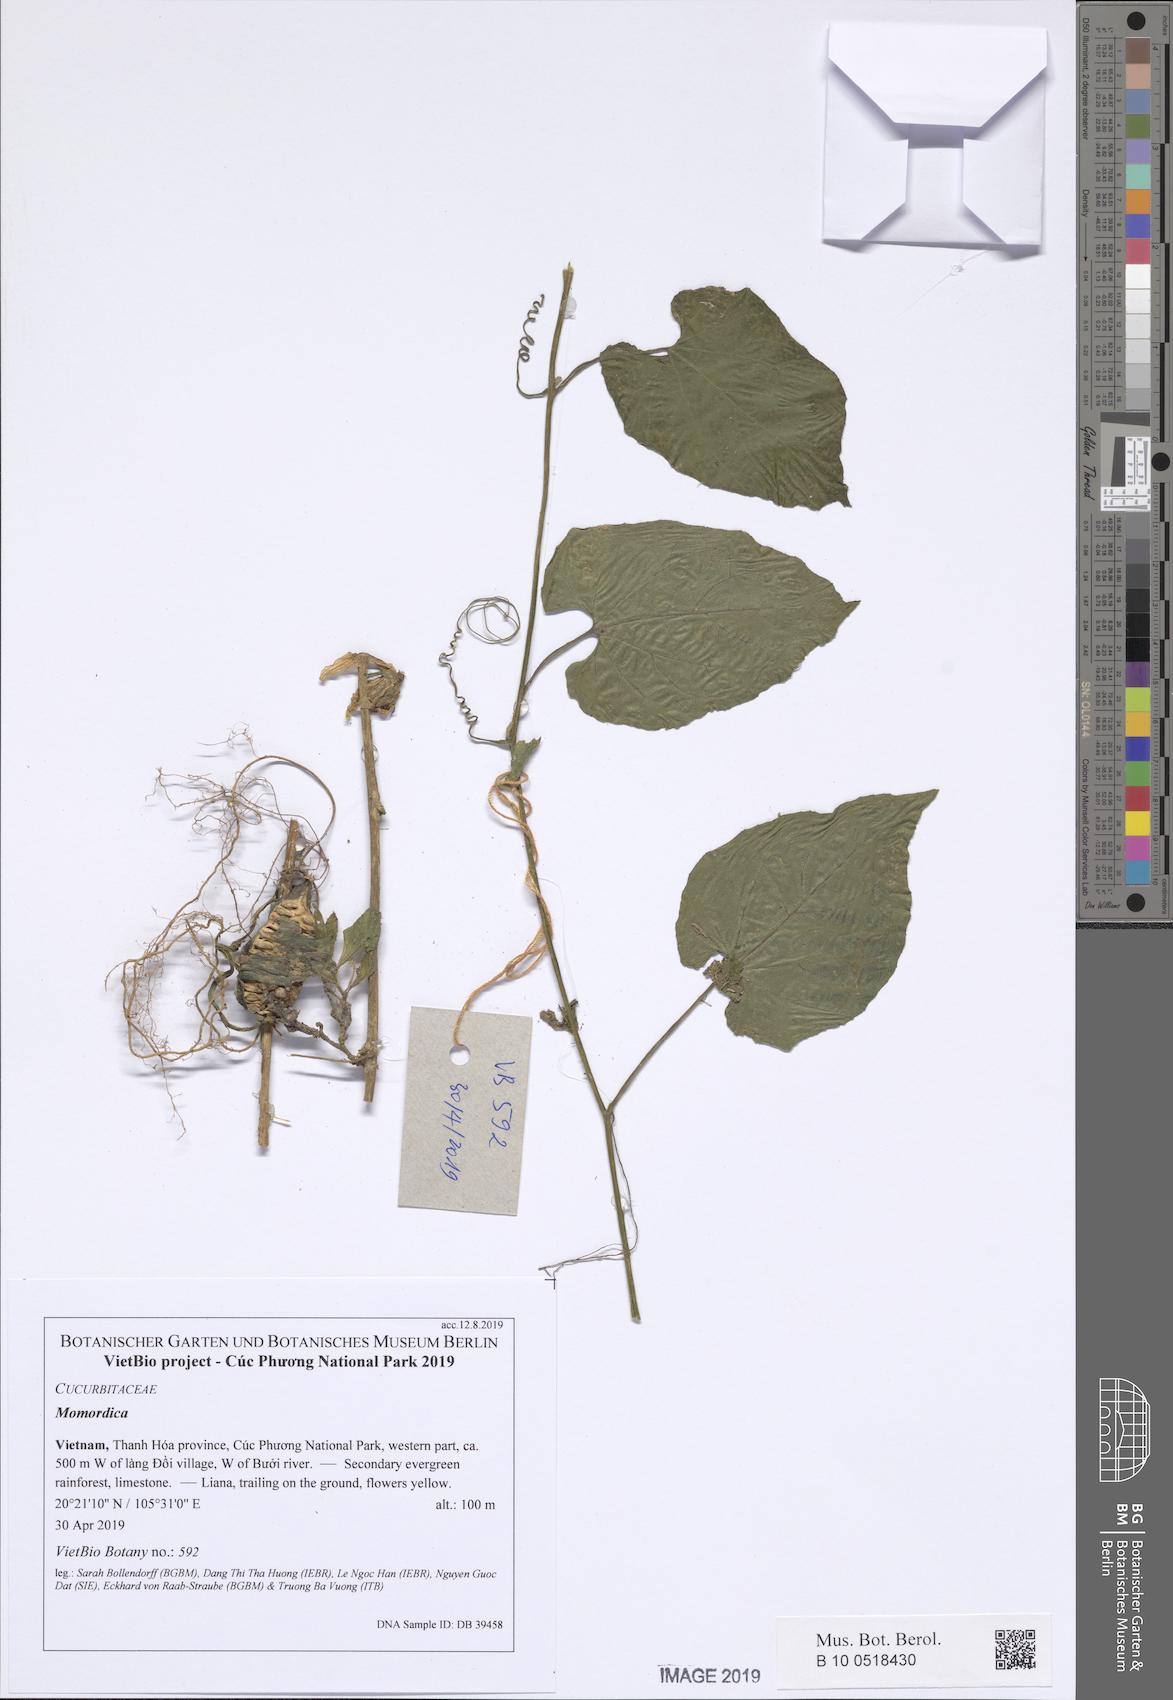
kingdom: Plantae
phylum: Tracheophyta
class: Magnoliopsida
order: Cucurbitales
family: Cucurbitaceae
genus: Siraitia
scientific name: Siraitia siamensis
